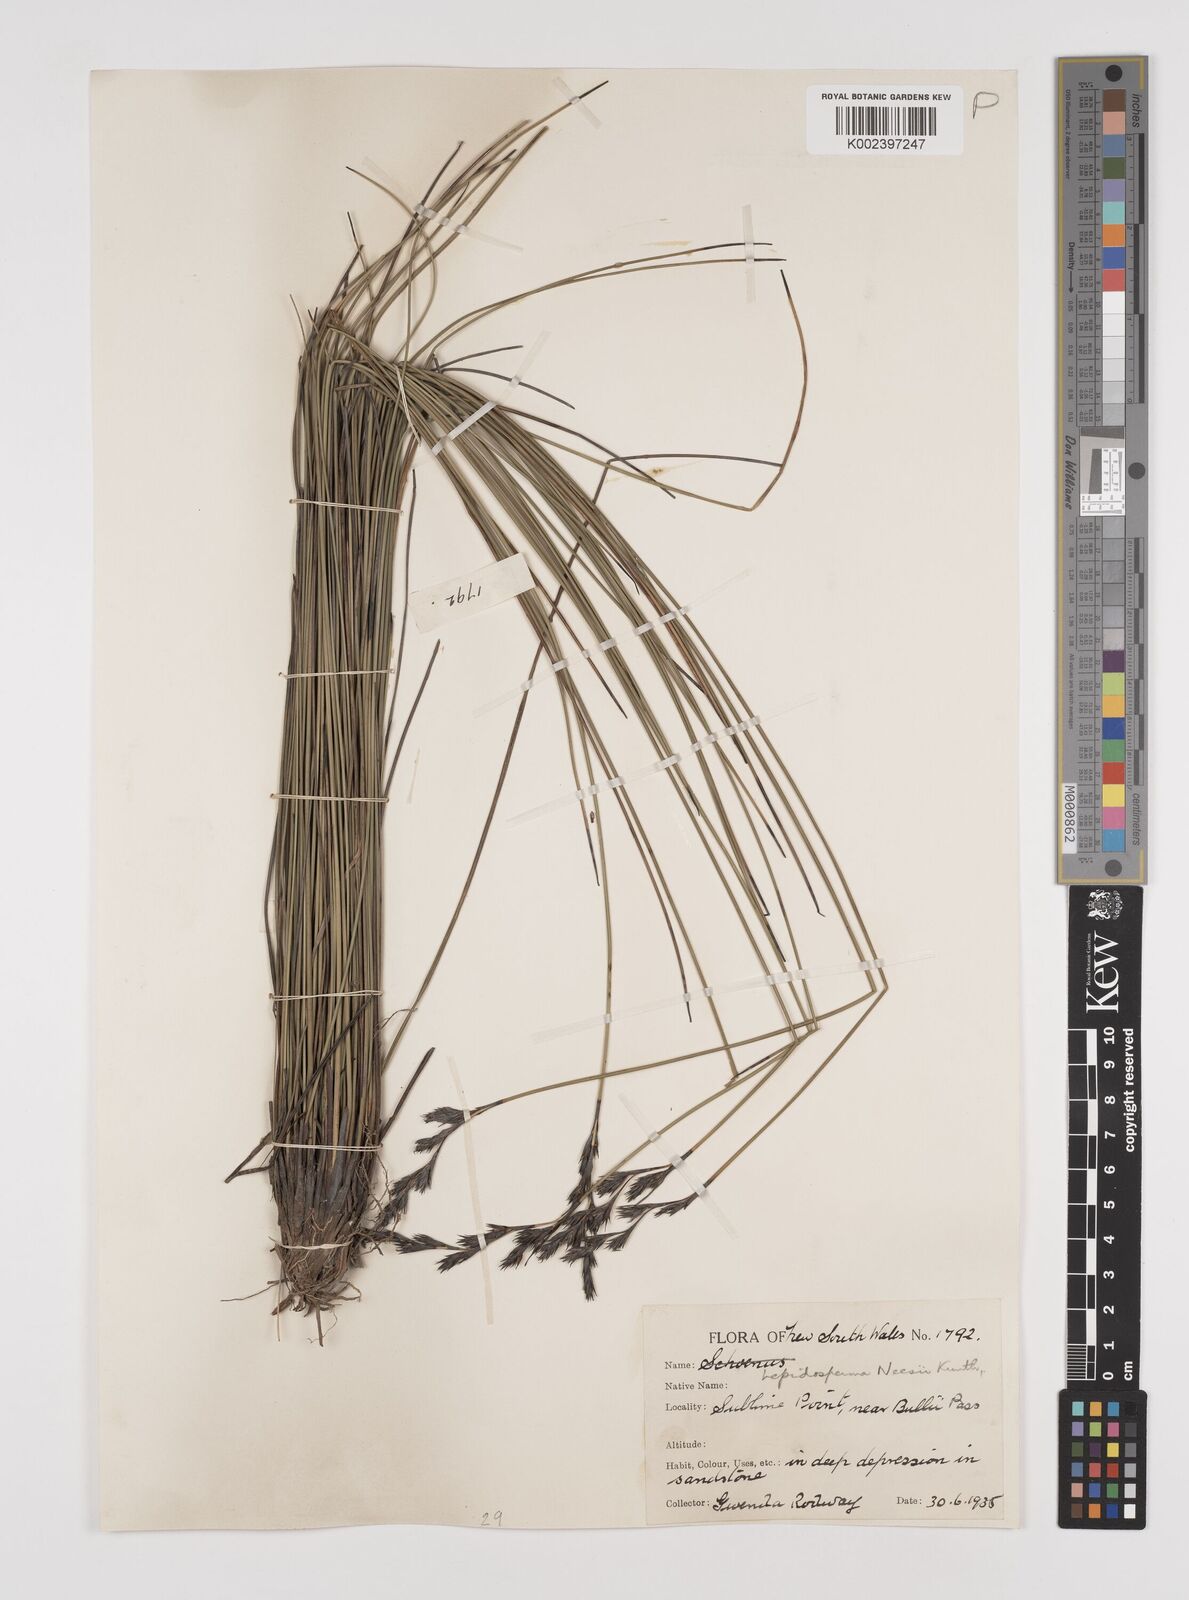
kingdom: Plantae
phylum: Tracheophyta
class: Liliopsida
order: Poales
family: Cyperaceae
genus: Lepidosperma
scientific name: Lepidosperma neesii
